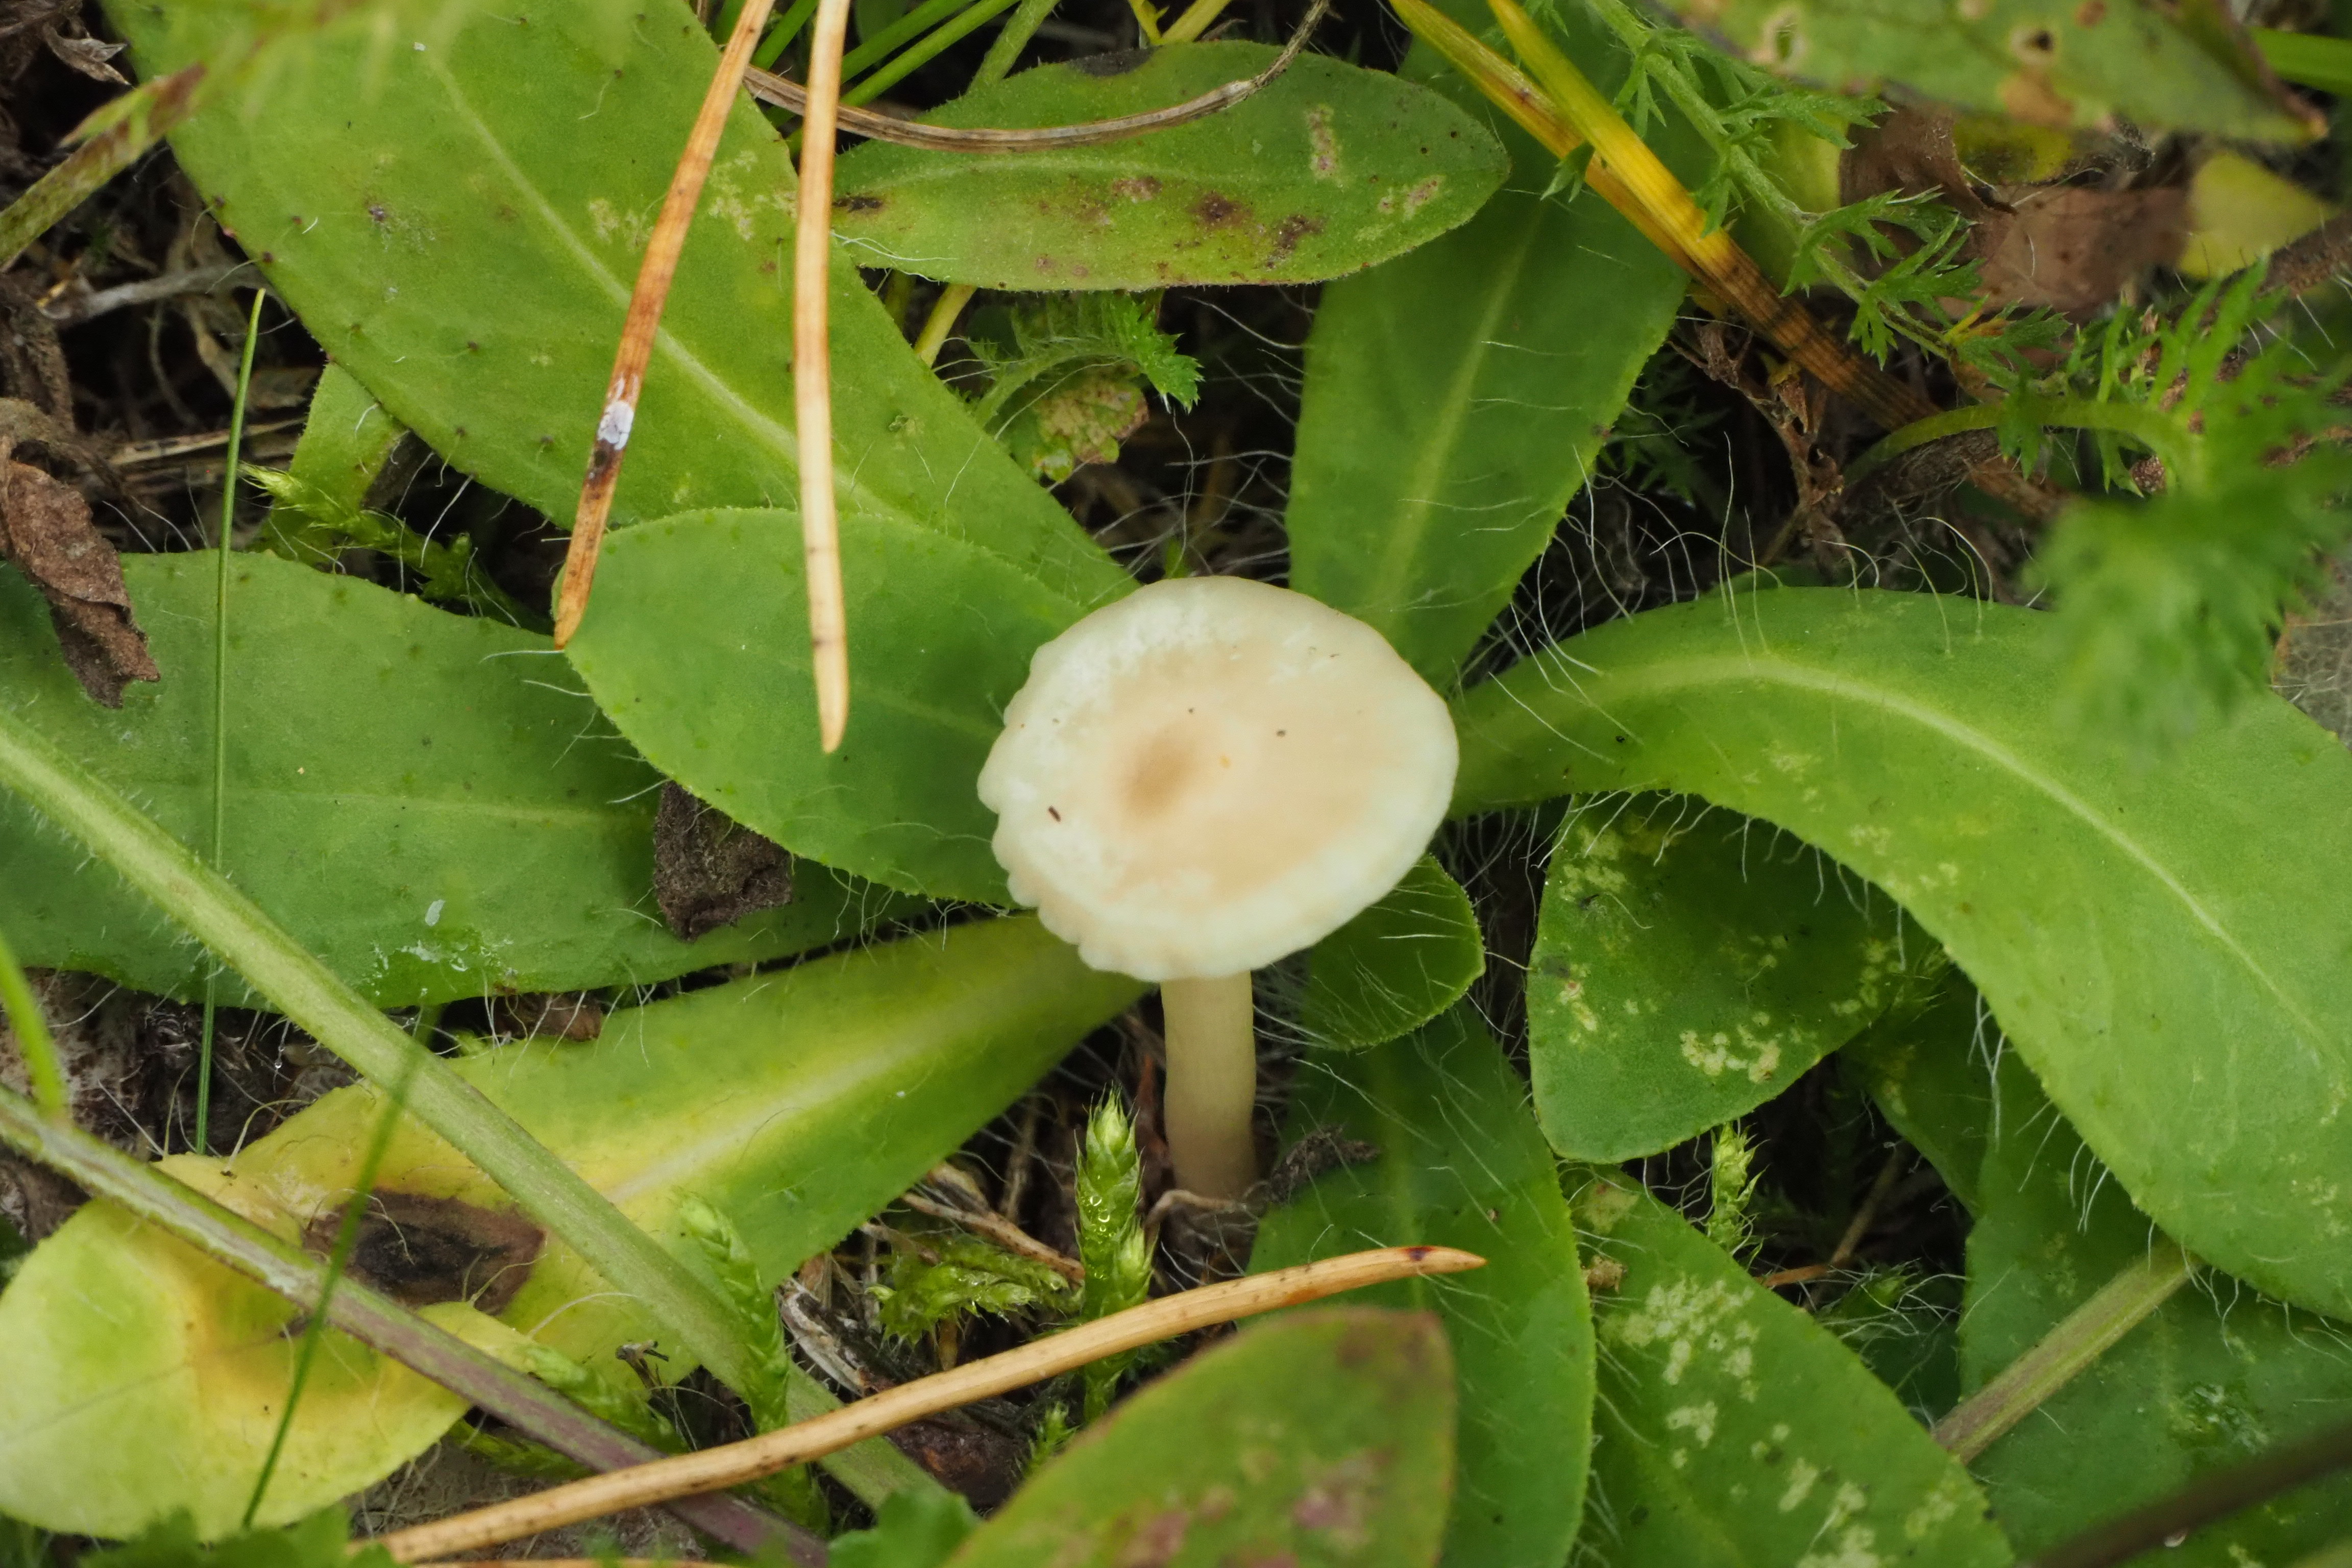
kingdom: Fungi
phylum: Basidiomycota
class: Agaricomycetes
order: Agaricales
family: Hygrophoraceae
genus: Cuphophyllus
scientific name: Cuphophyllus virgineus
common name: Snowy waxcap
